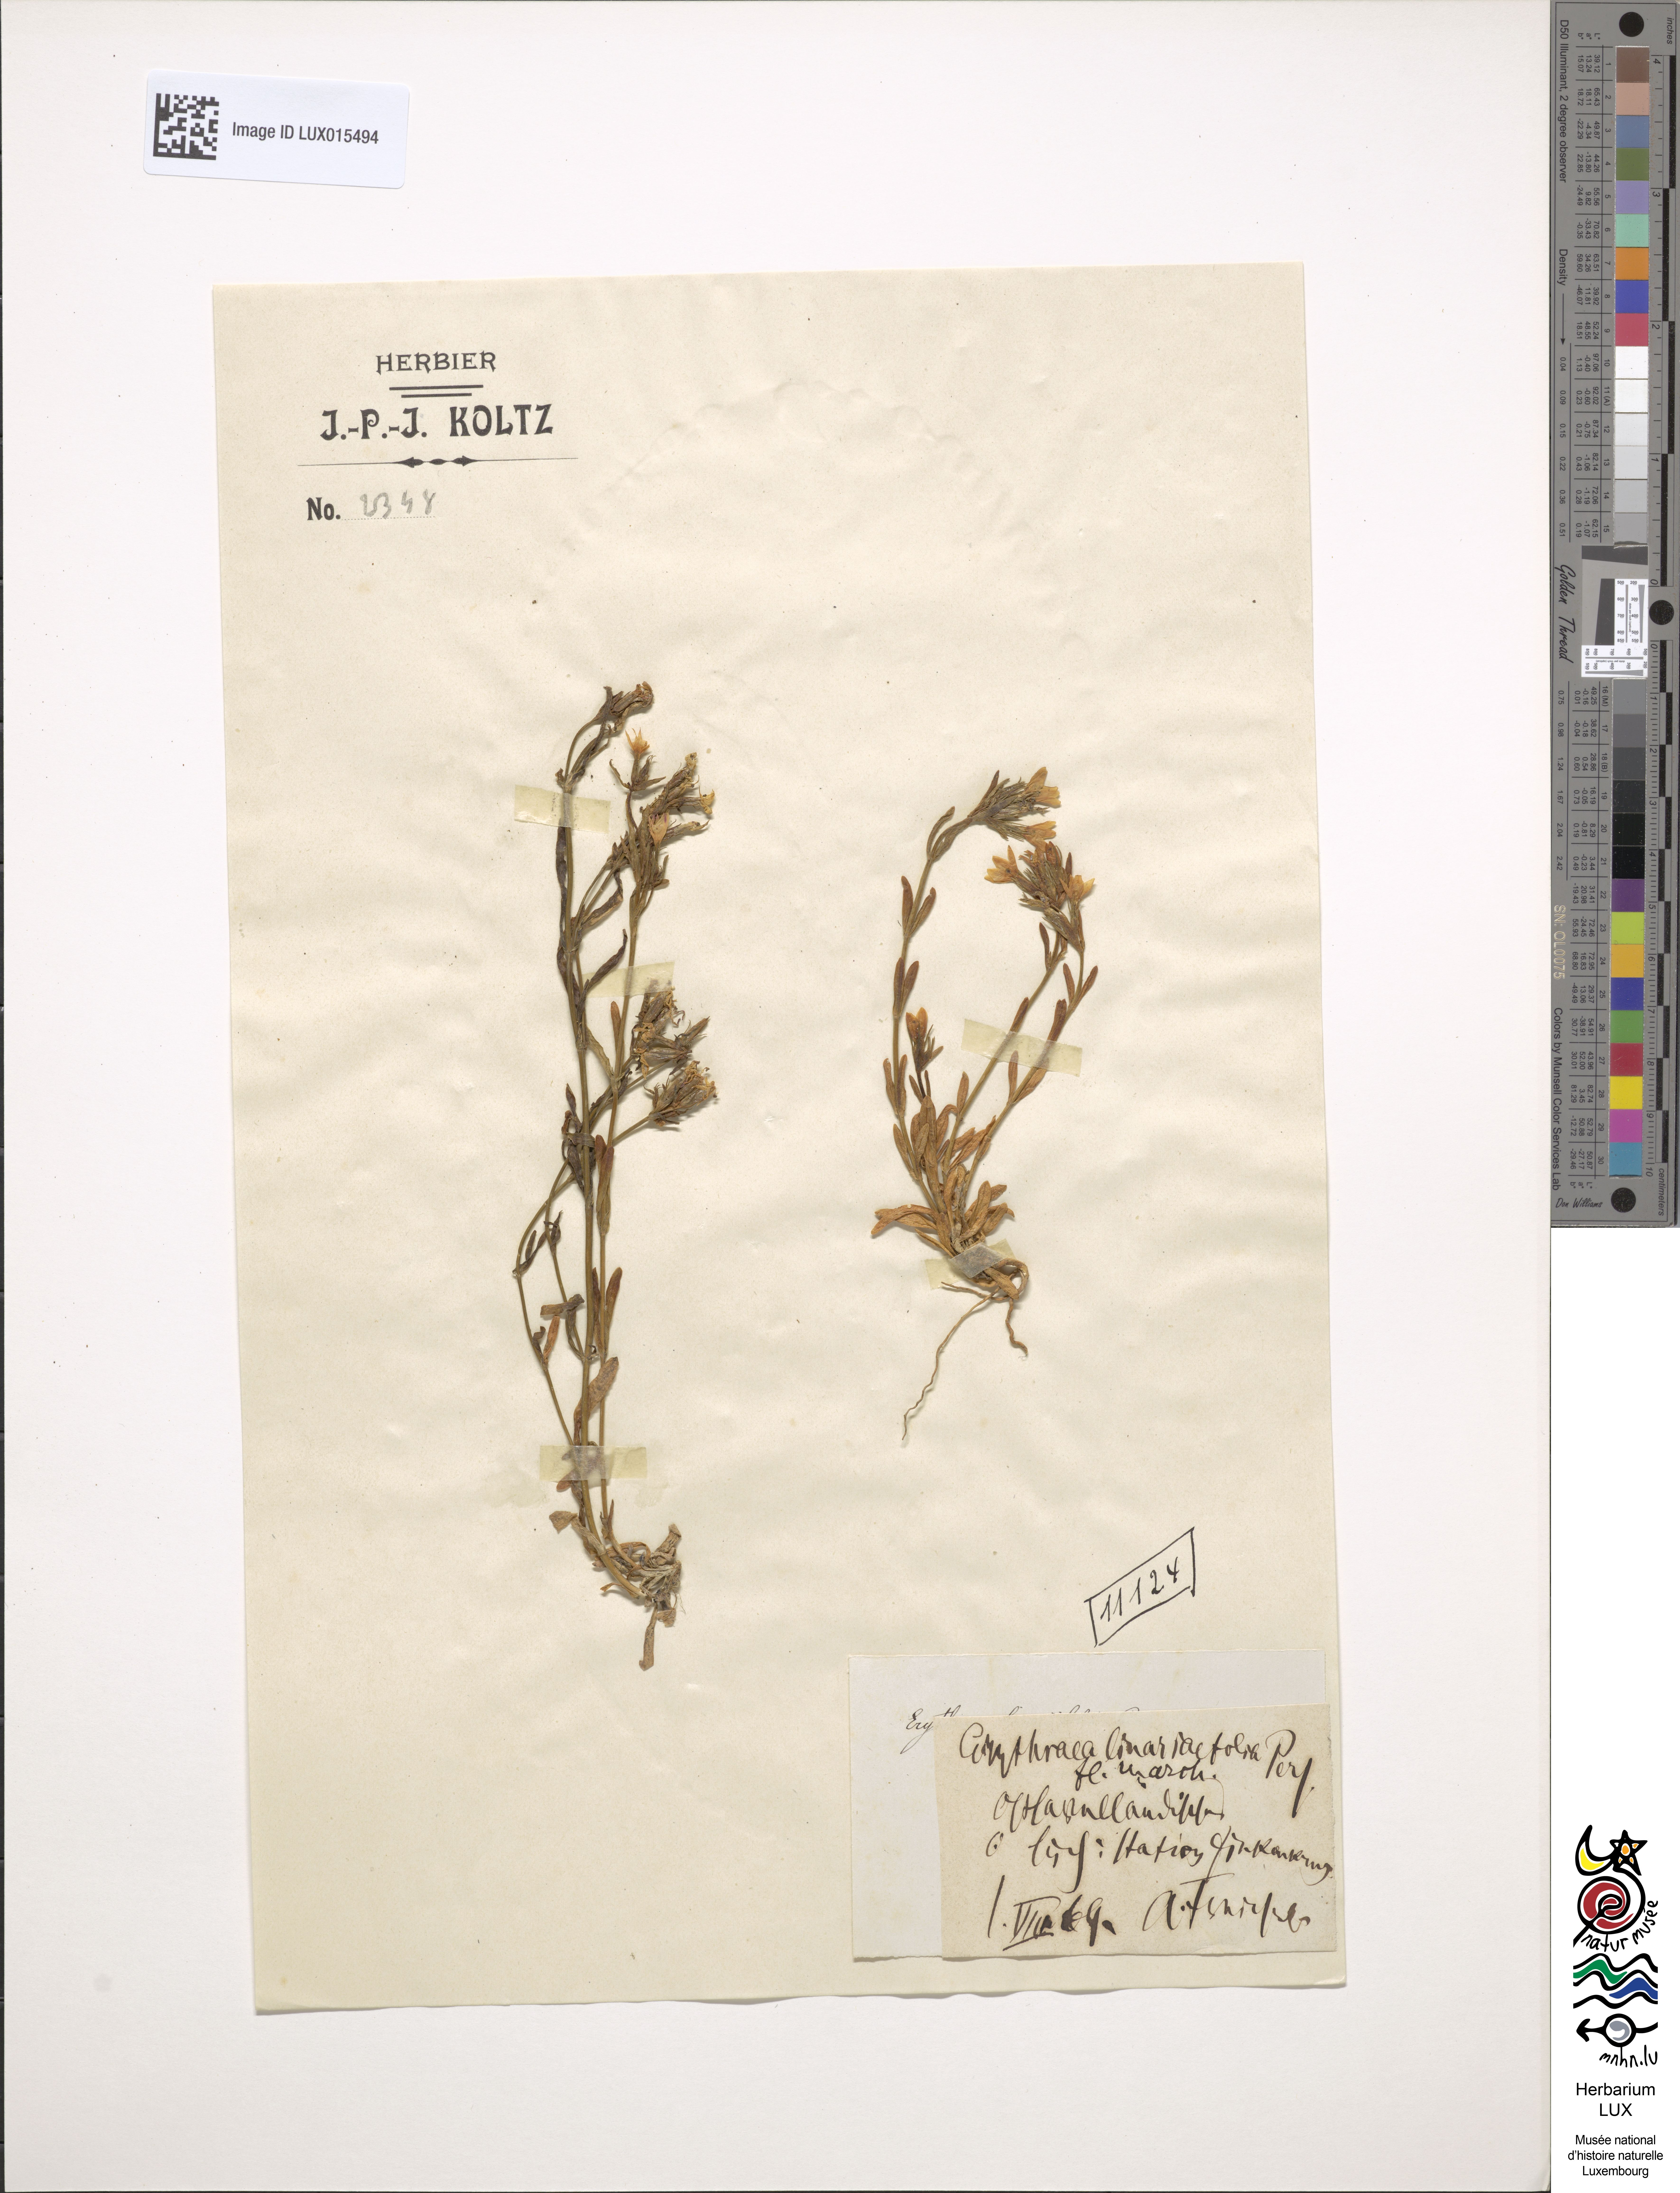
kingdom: Plantae
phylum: Tracheophyta
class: Magnoliopsida
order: Gentianales
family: Gentianaceae
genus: Centaurium
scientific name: Centaurium littorale
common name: Seaside centaury
